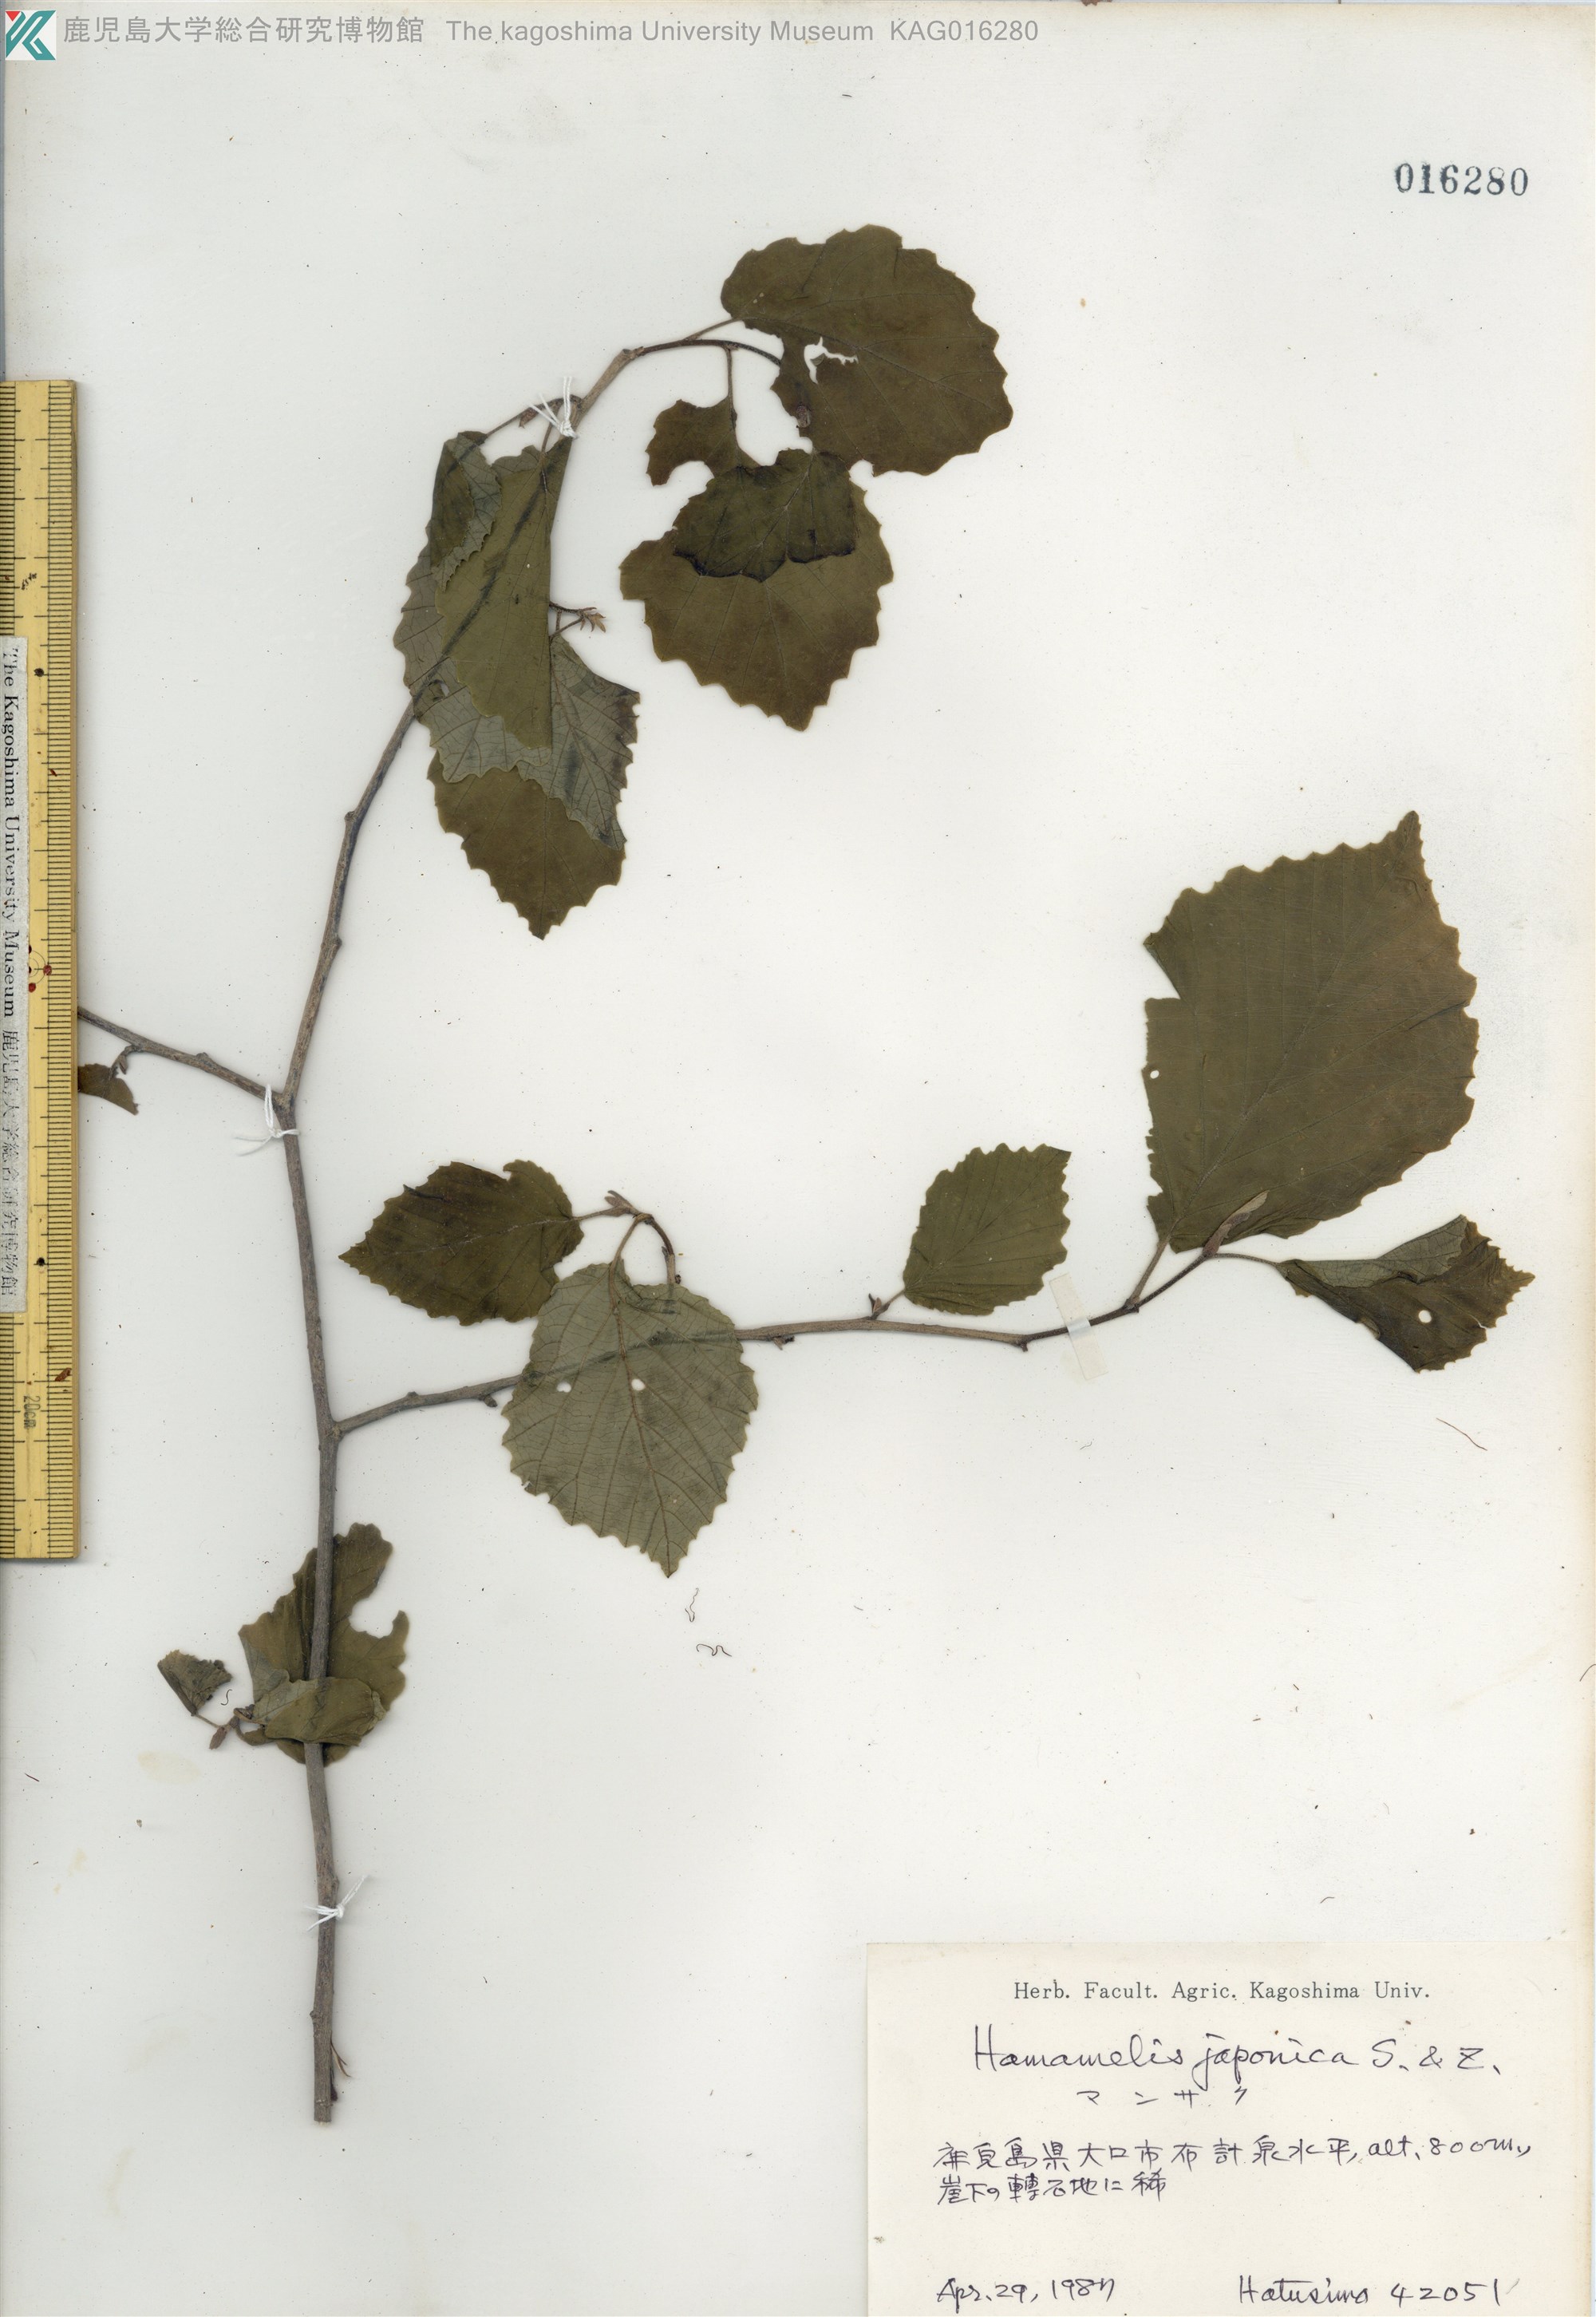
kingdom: Plantae
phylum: Tracheophyta
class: Magnoliopsida
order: Saxifragales
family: Hamamelidaceae
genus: Hamamelis
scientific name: Hamamelis japonica
